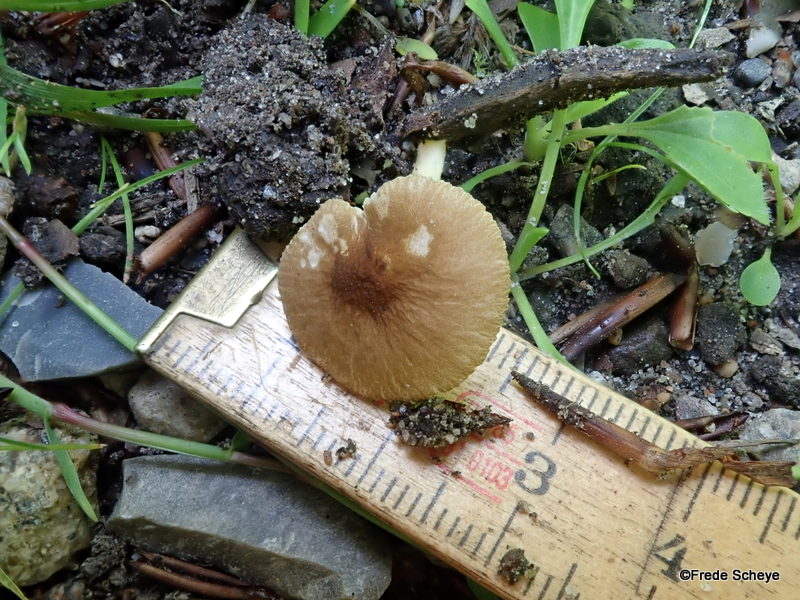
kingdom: Fungi
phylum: Basidiomycota
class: Agaricomycetes
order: Agaricales
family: Pluteaceae
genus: Pluteus
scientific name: Pluteus vellingae
